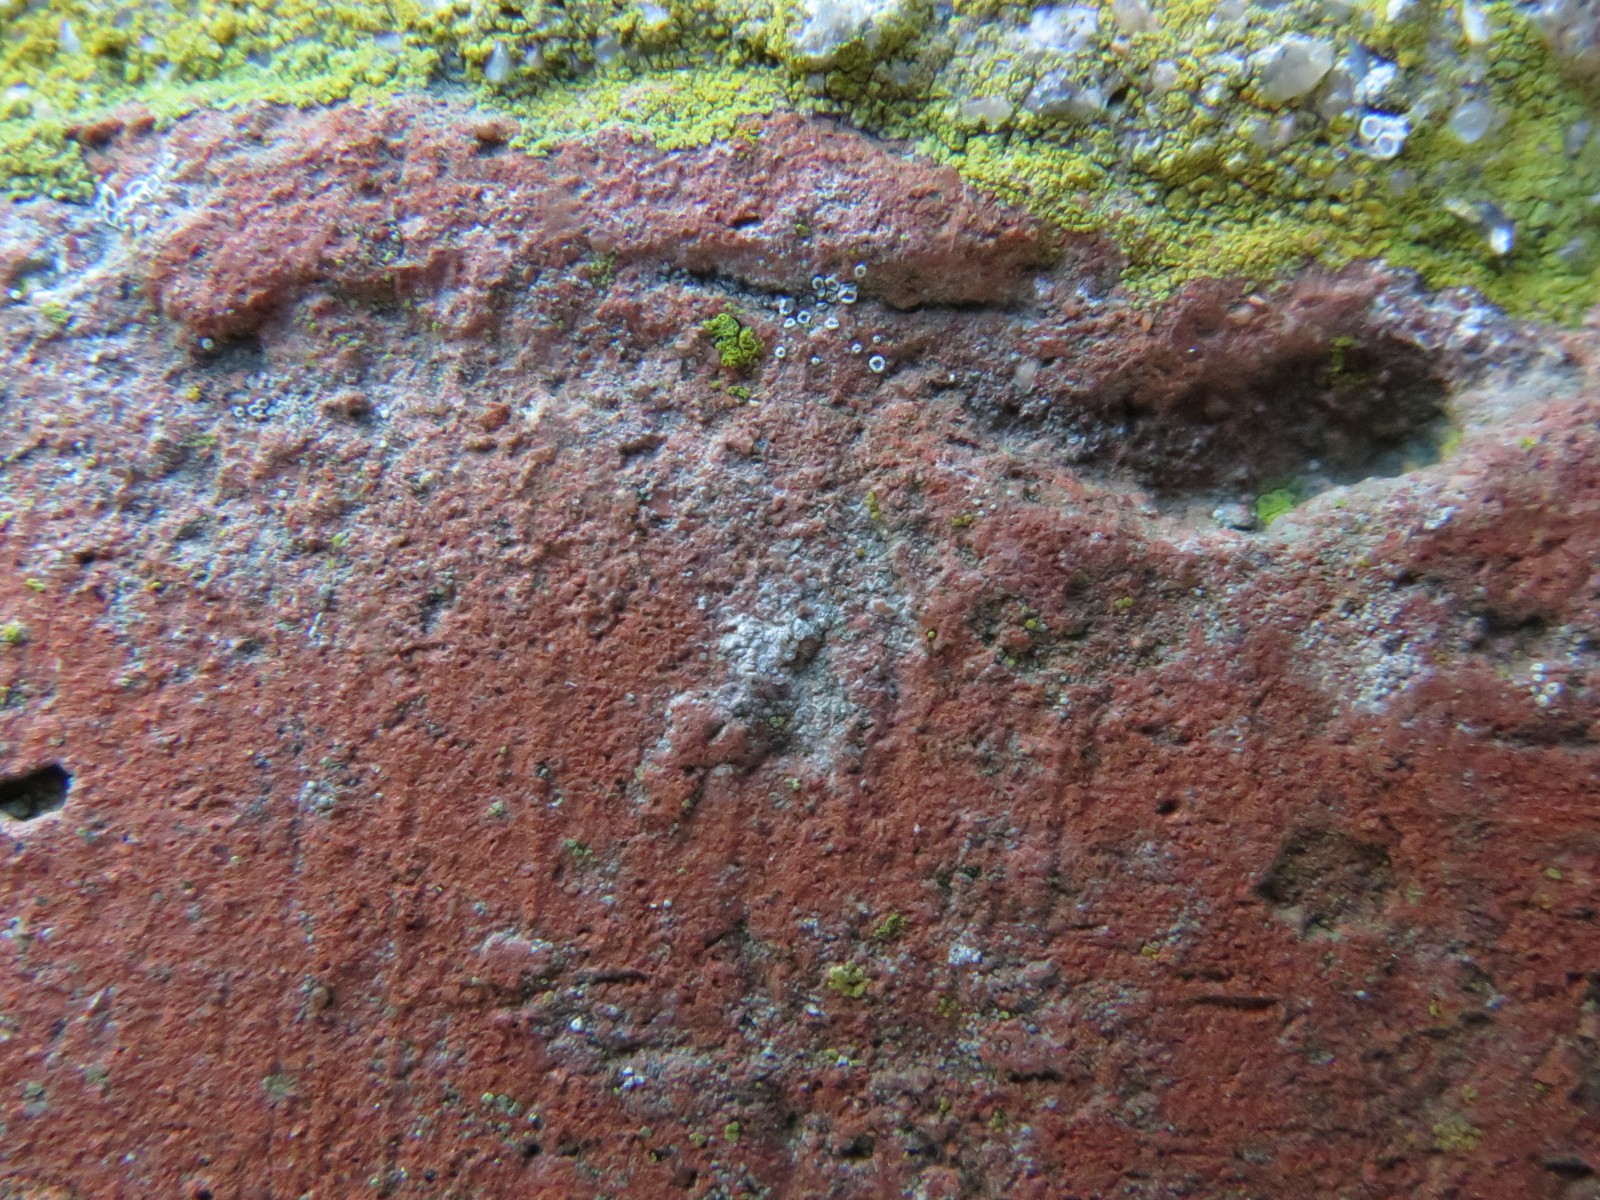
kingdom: Fungi
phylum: Ascomycota
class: Lecanoromycetes
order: Lecanorales
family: Lecanoraceae
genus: Polyozosia
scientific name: Polyozosia dispersa
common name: spredt kantskivelav
